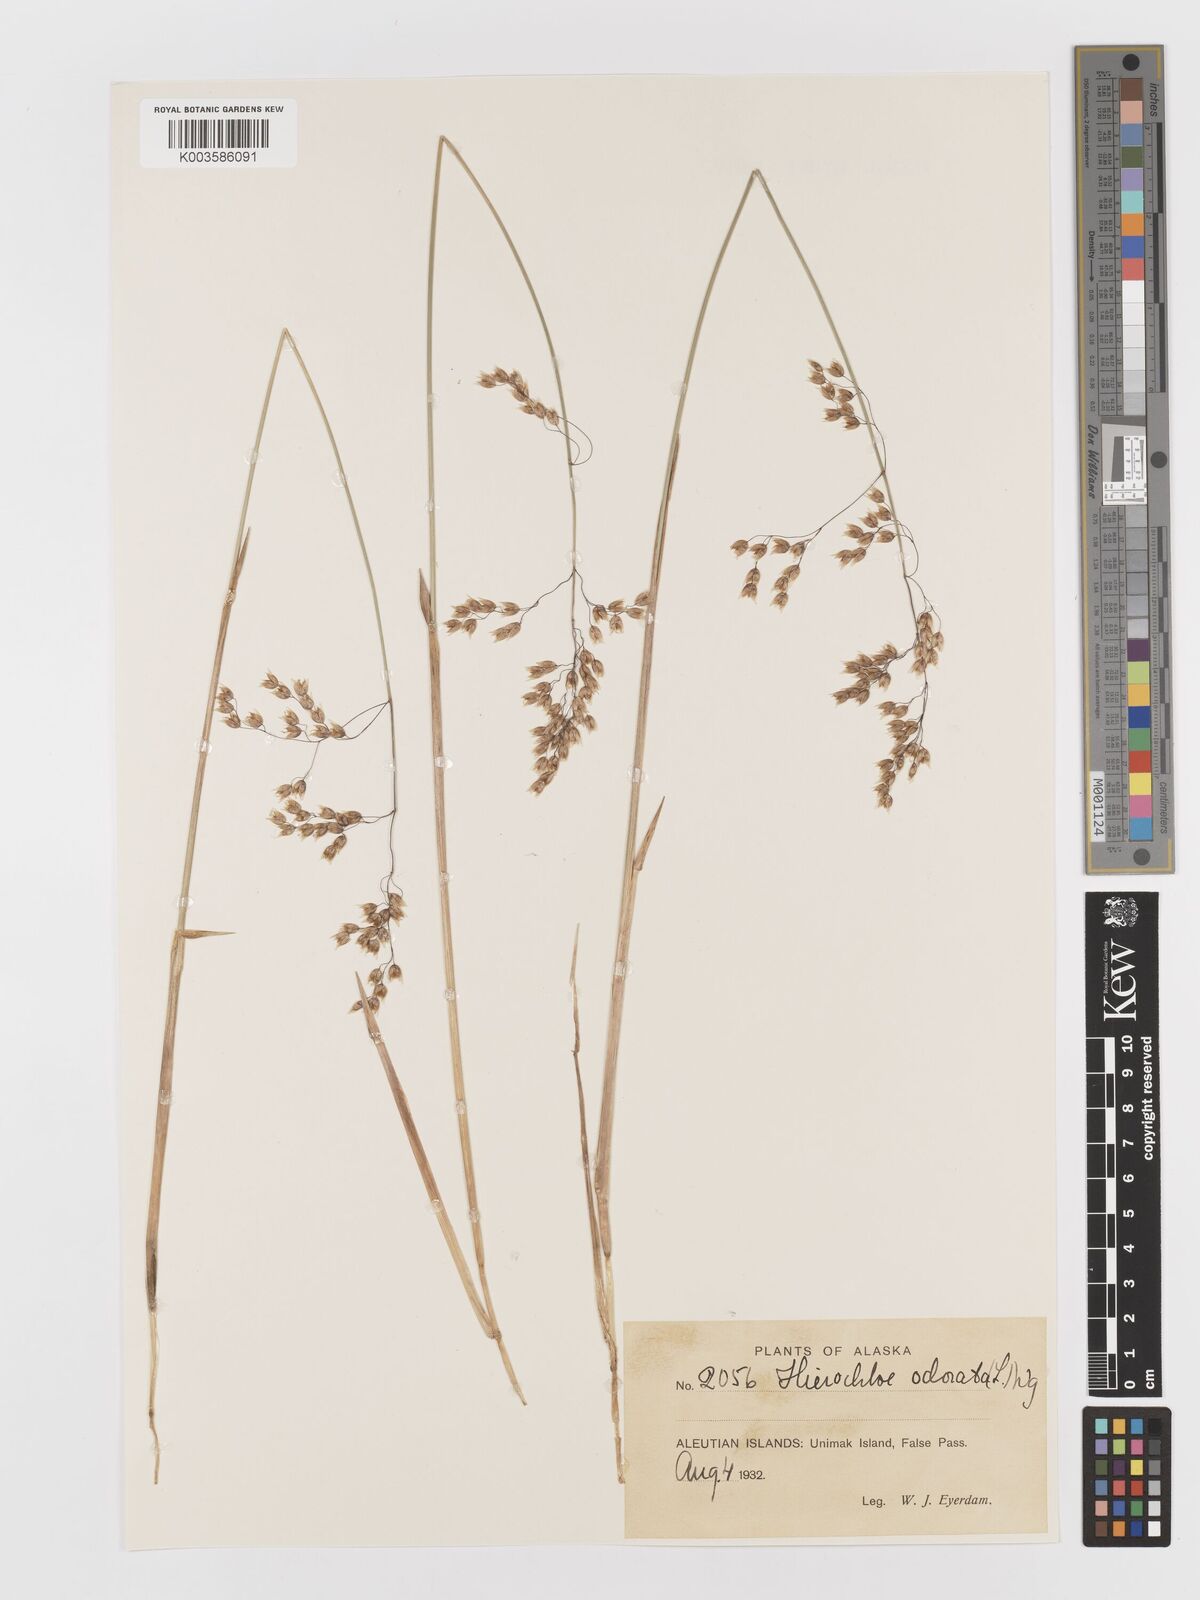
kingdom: Plantae
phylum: Tracheophyta
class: Liliopsida
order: Poales
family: Poaceae
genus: Anthoxanthum
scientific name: Anthoxanthum nitens
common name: Holy grass
